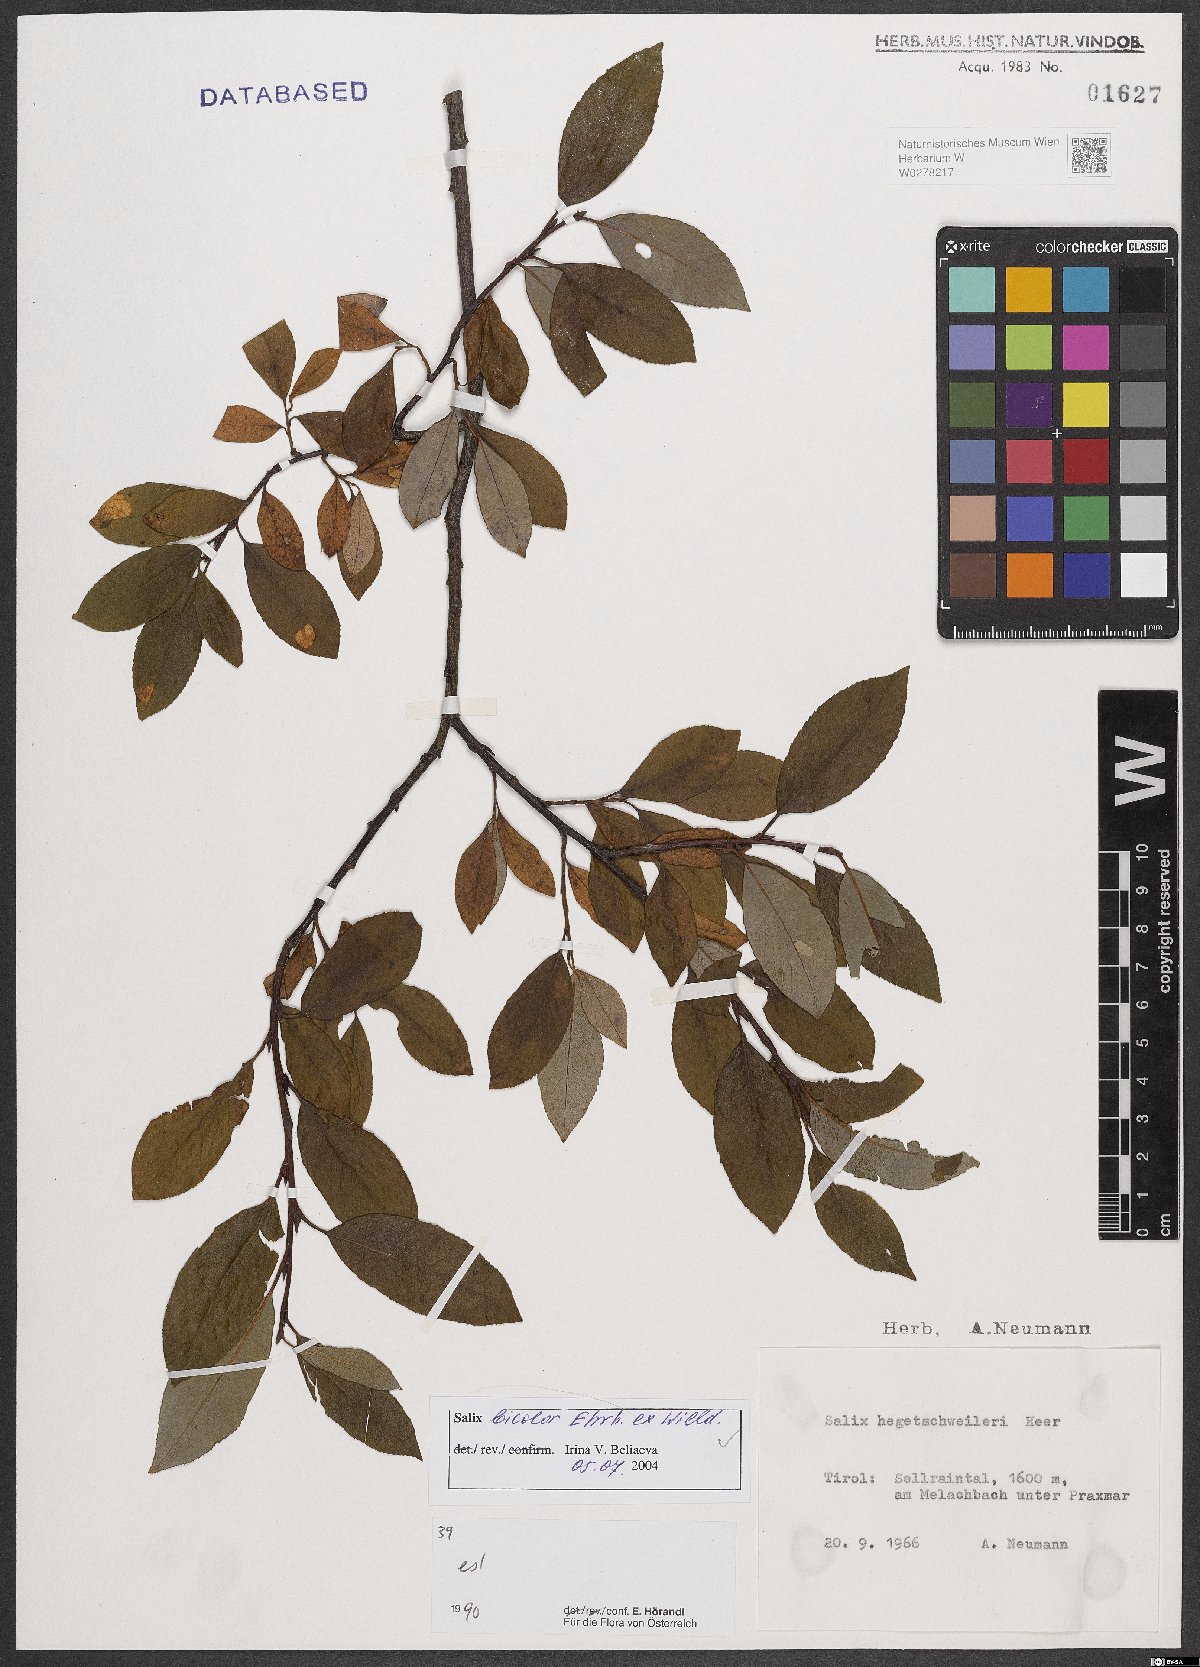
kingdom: Plantae
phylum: Tracheophyta
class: Magnoliopsida
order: Malpighiales
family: Salicaceae
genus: Salix
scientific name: Salix bicolor
